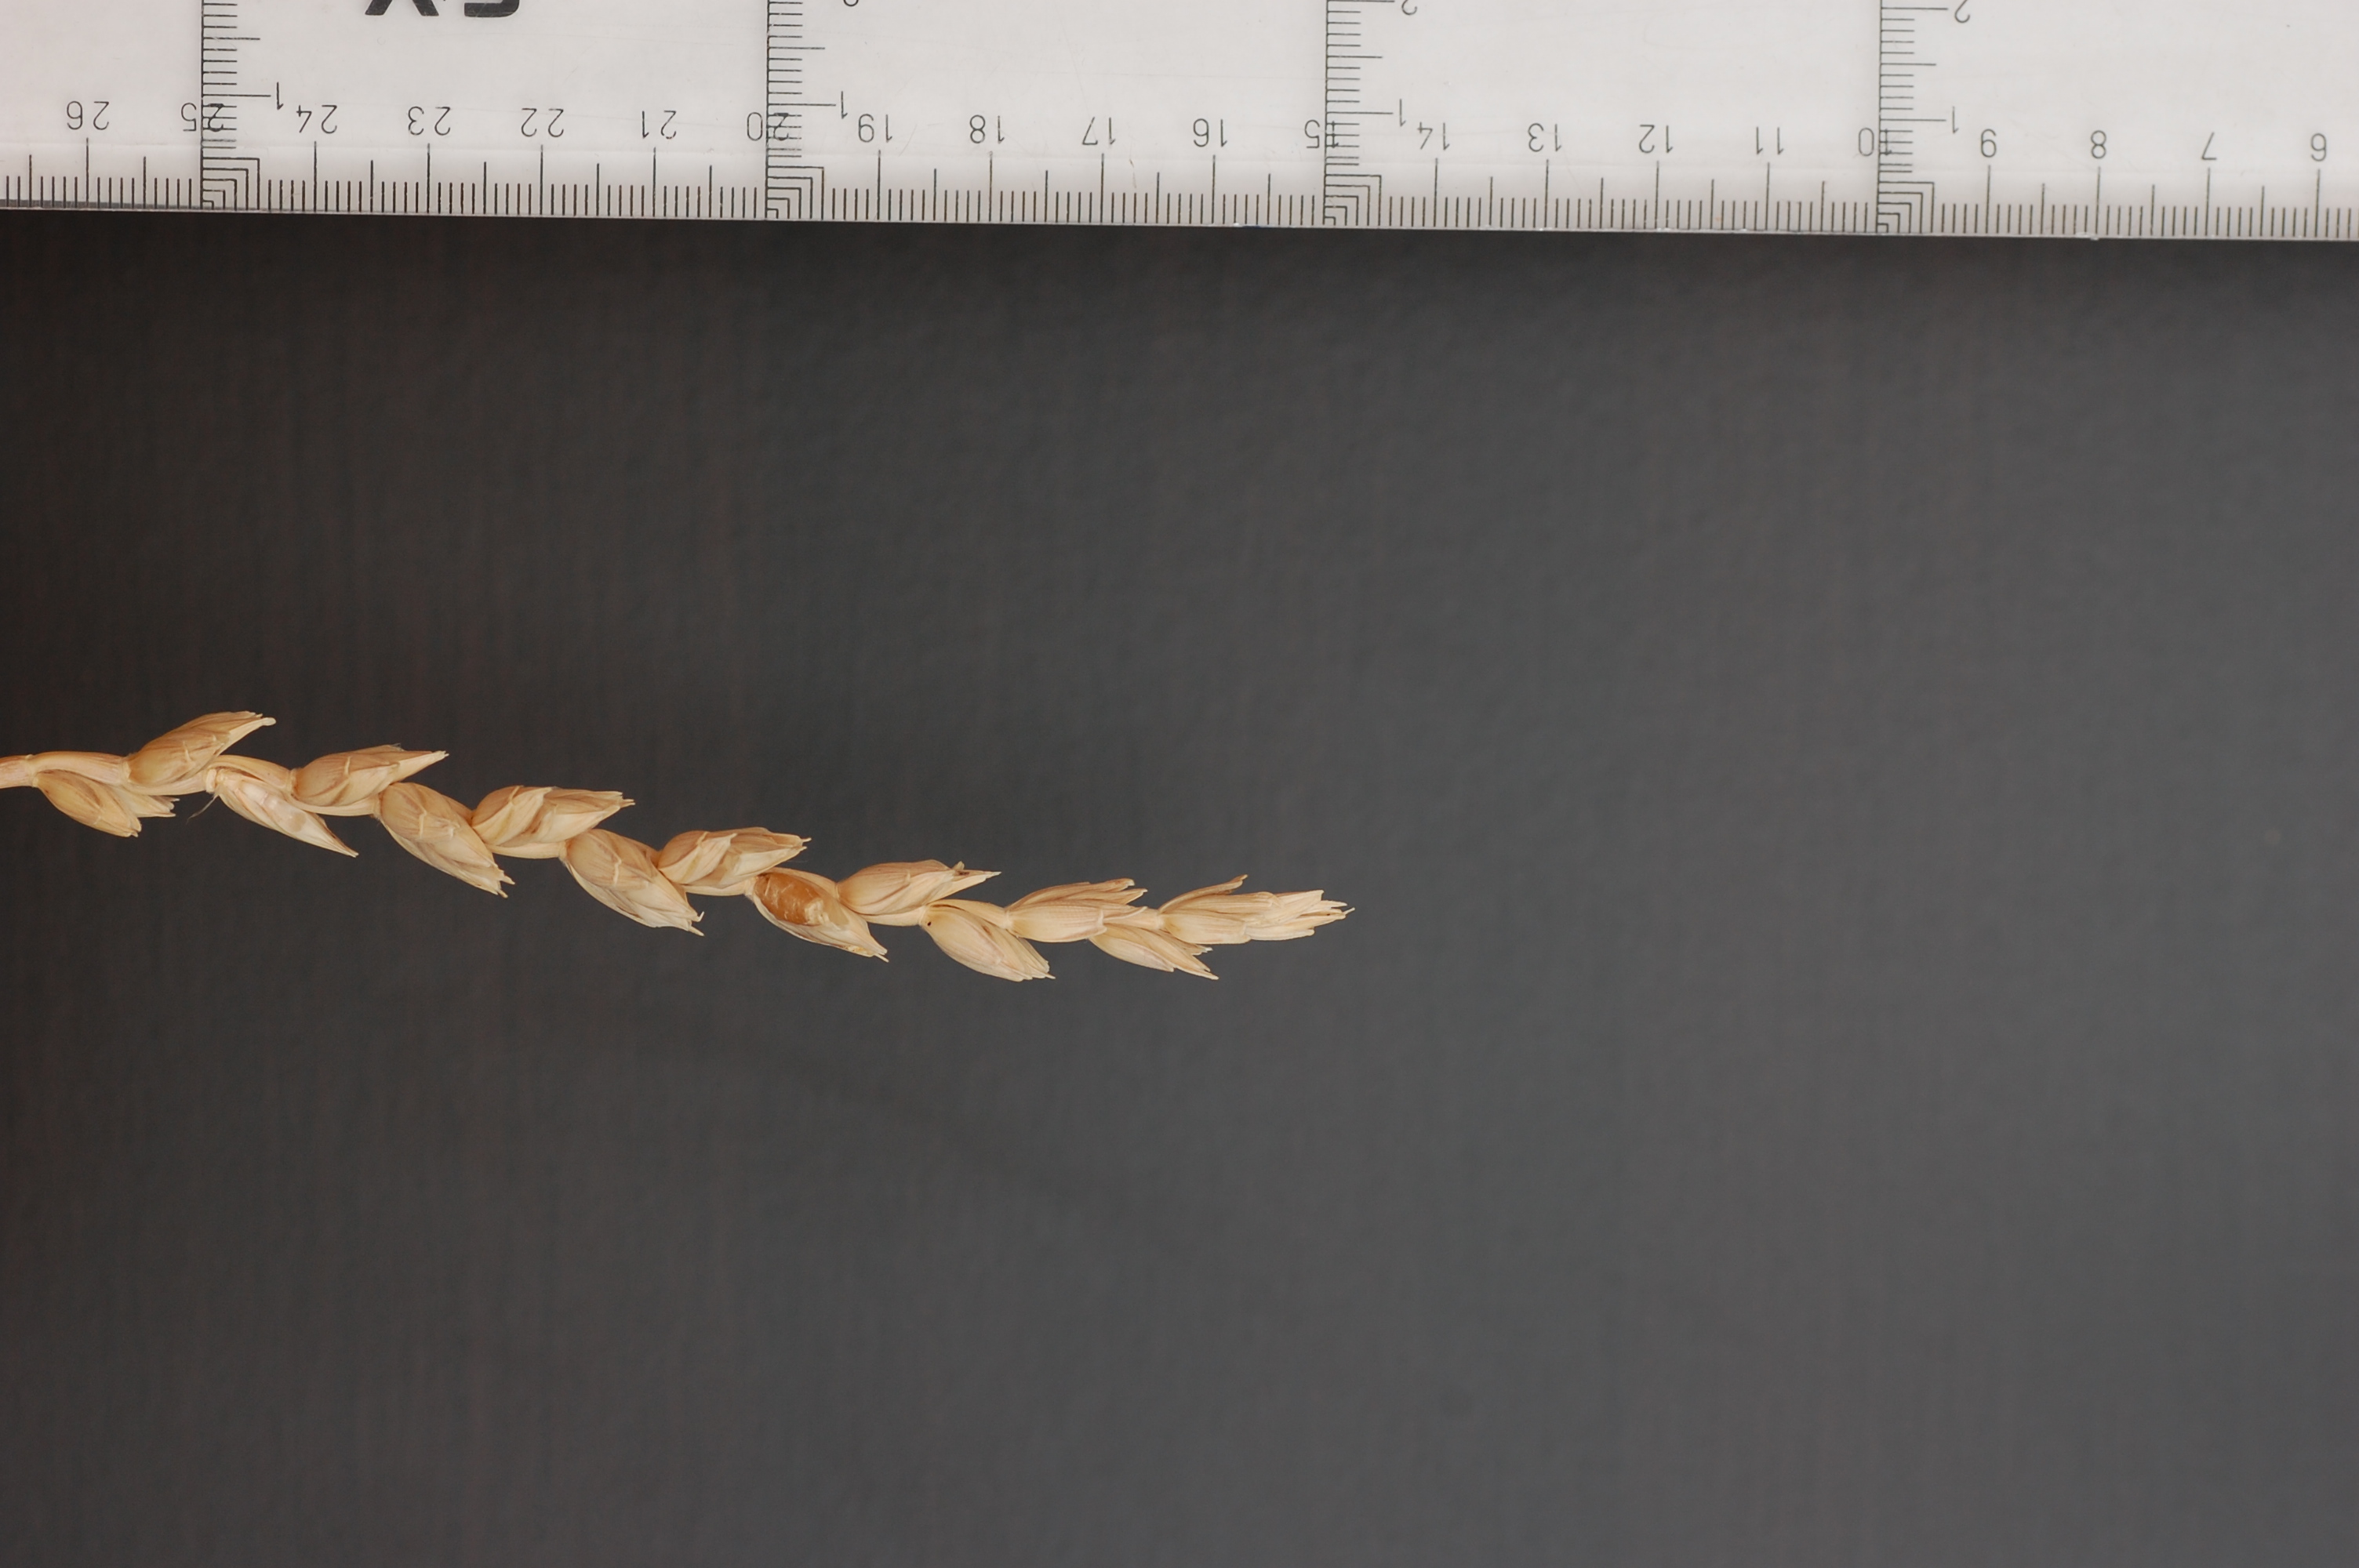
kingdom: Plantae
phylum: Tracheophyta
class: Liliopsida
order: Poales
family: Poaceae
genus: Triticum
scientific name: Triticum aestivum
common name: Common wheat
